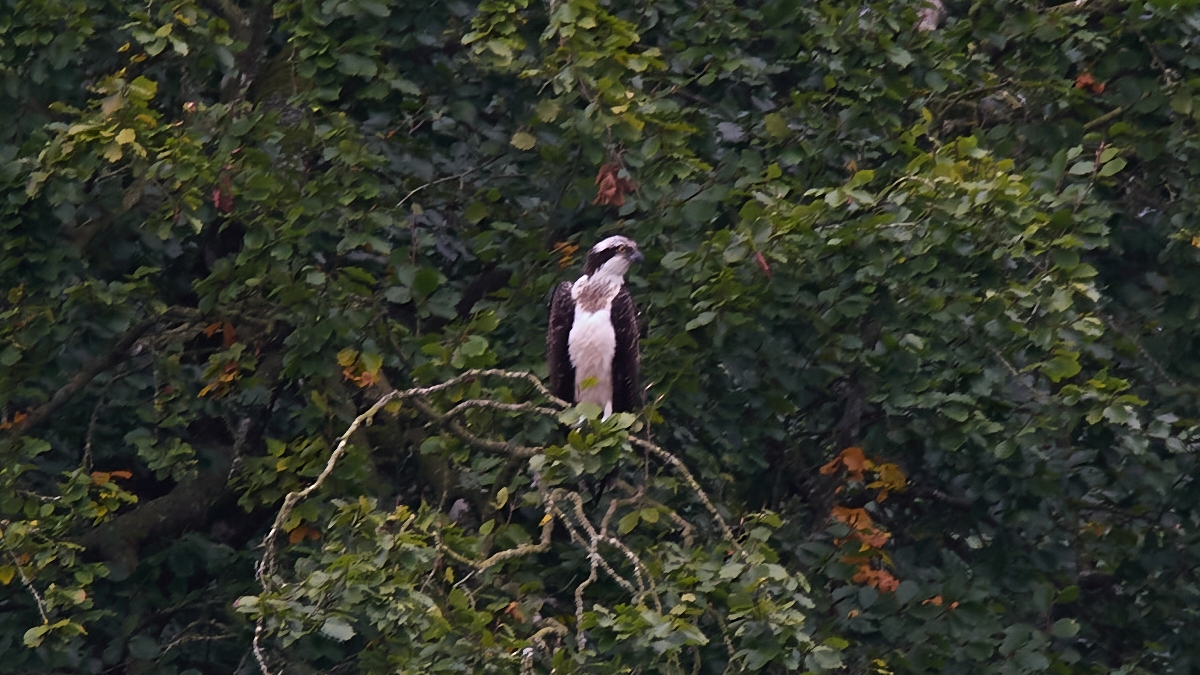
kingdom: Animalia
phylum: Chordata
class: Aves
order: Accipitriformes
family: Pandionidae
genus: Pandion
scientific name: Pandion haliaetus
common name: Fiskeørn
